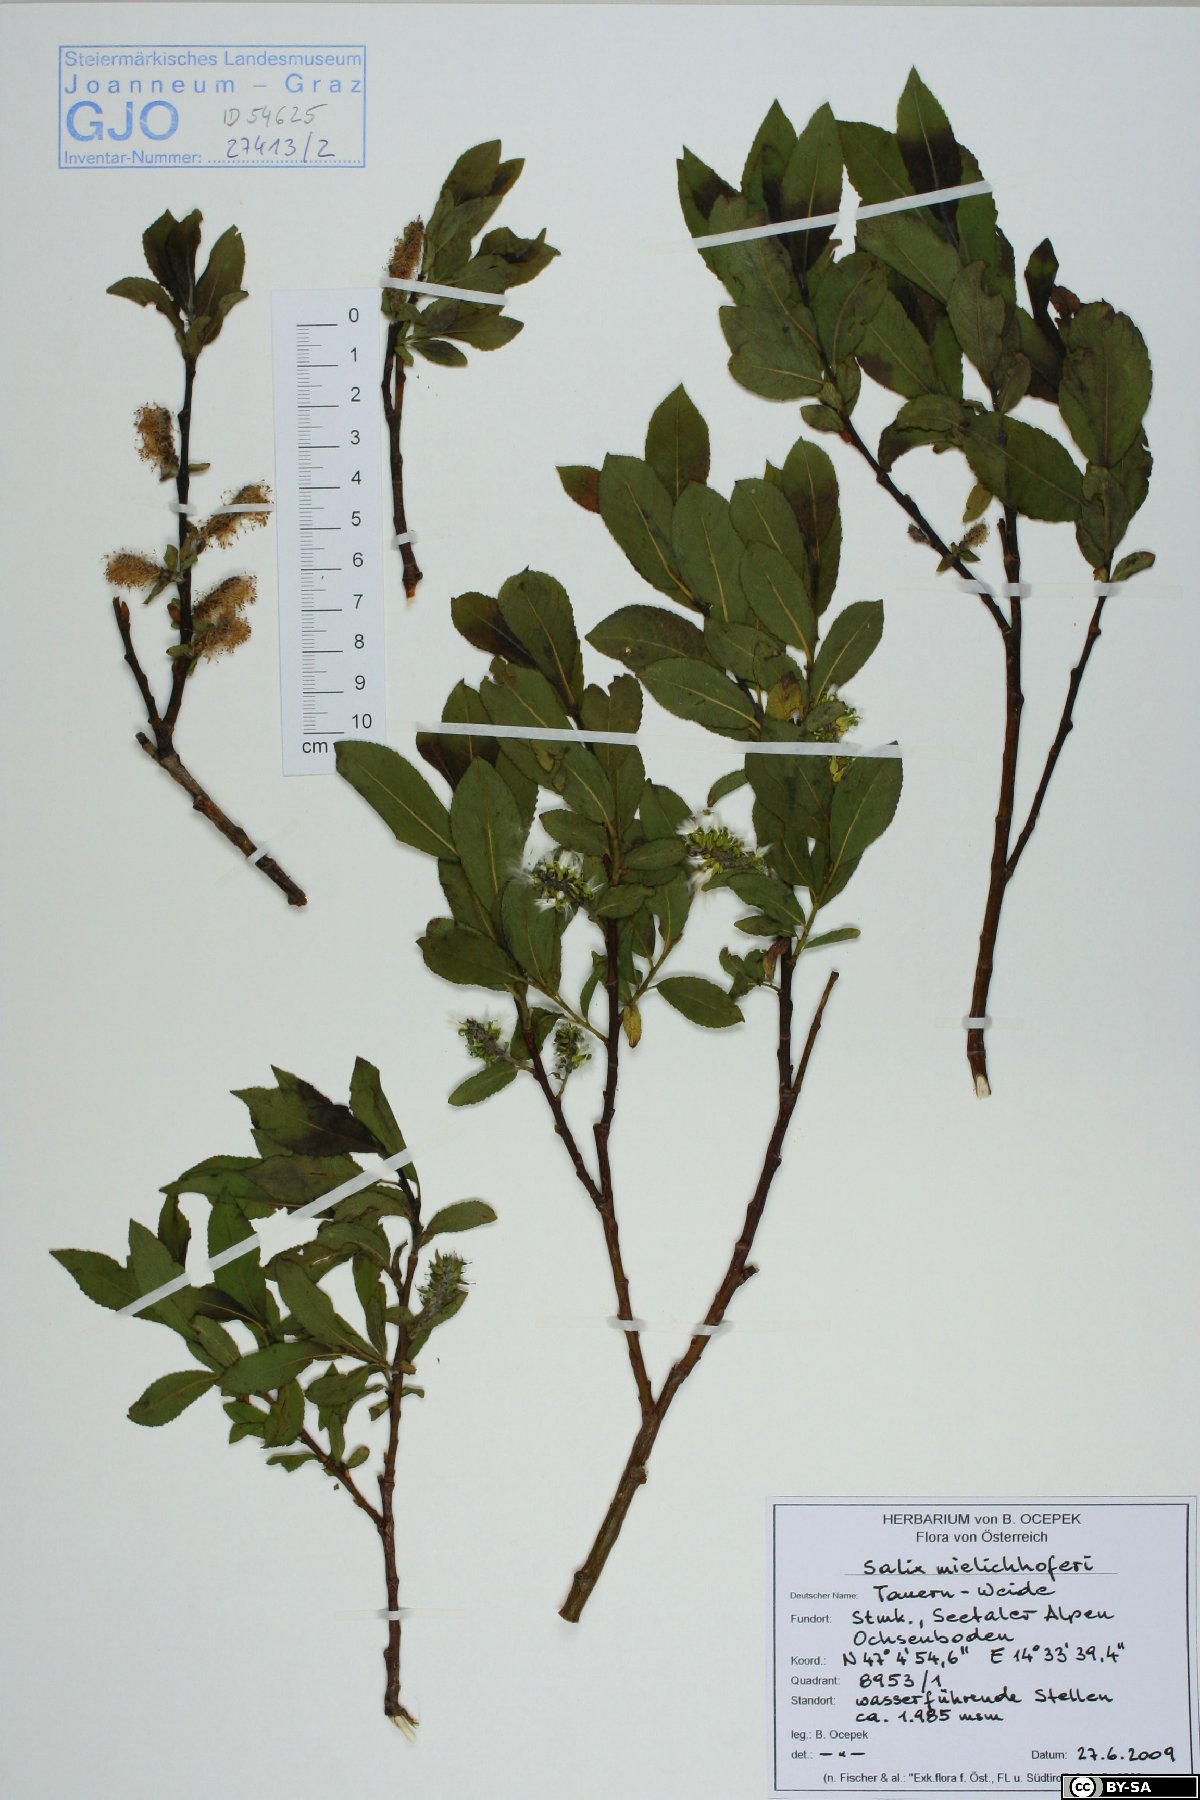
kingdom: Plantae
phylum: Tracheophyta
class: Magnoliopsida
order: Malpighiales
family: Salicaceae
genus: Salix
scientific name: Salix mielichhoferi
